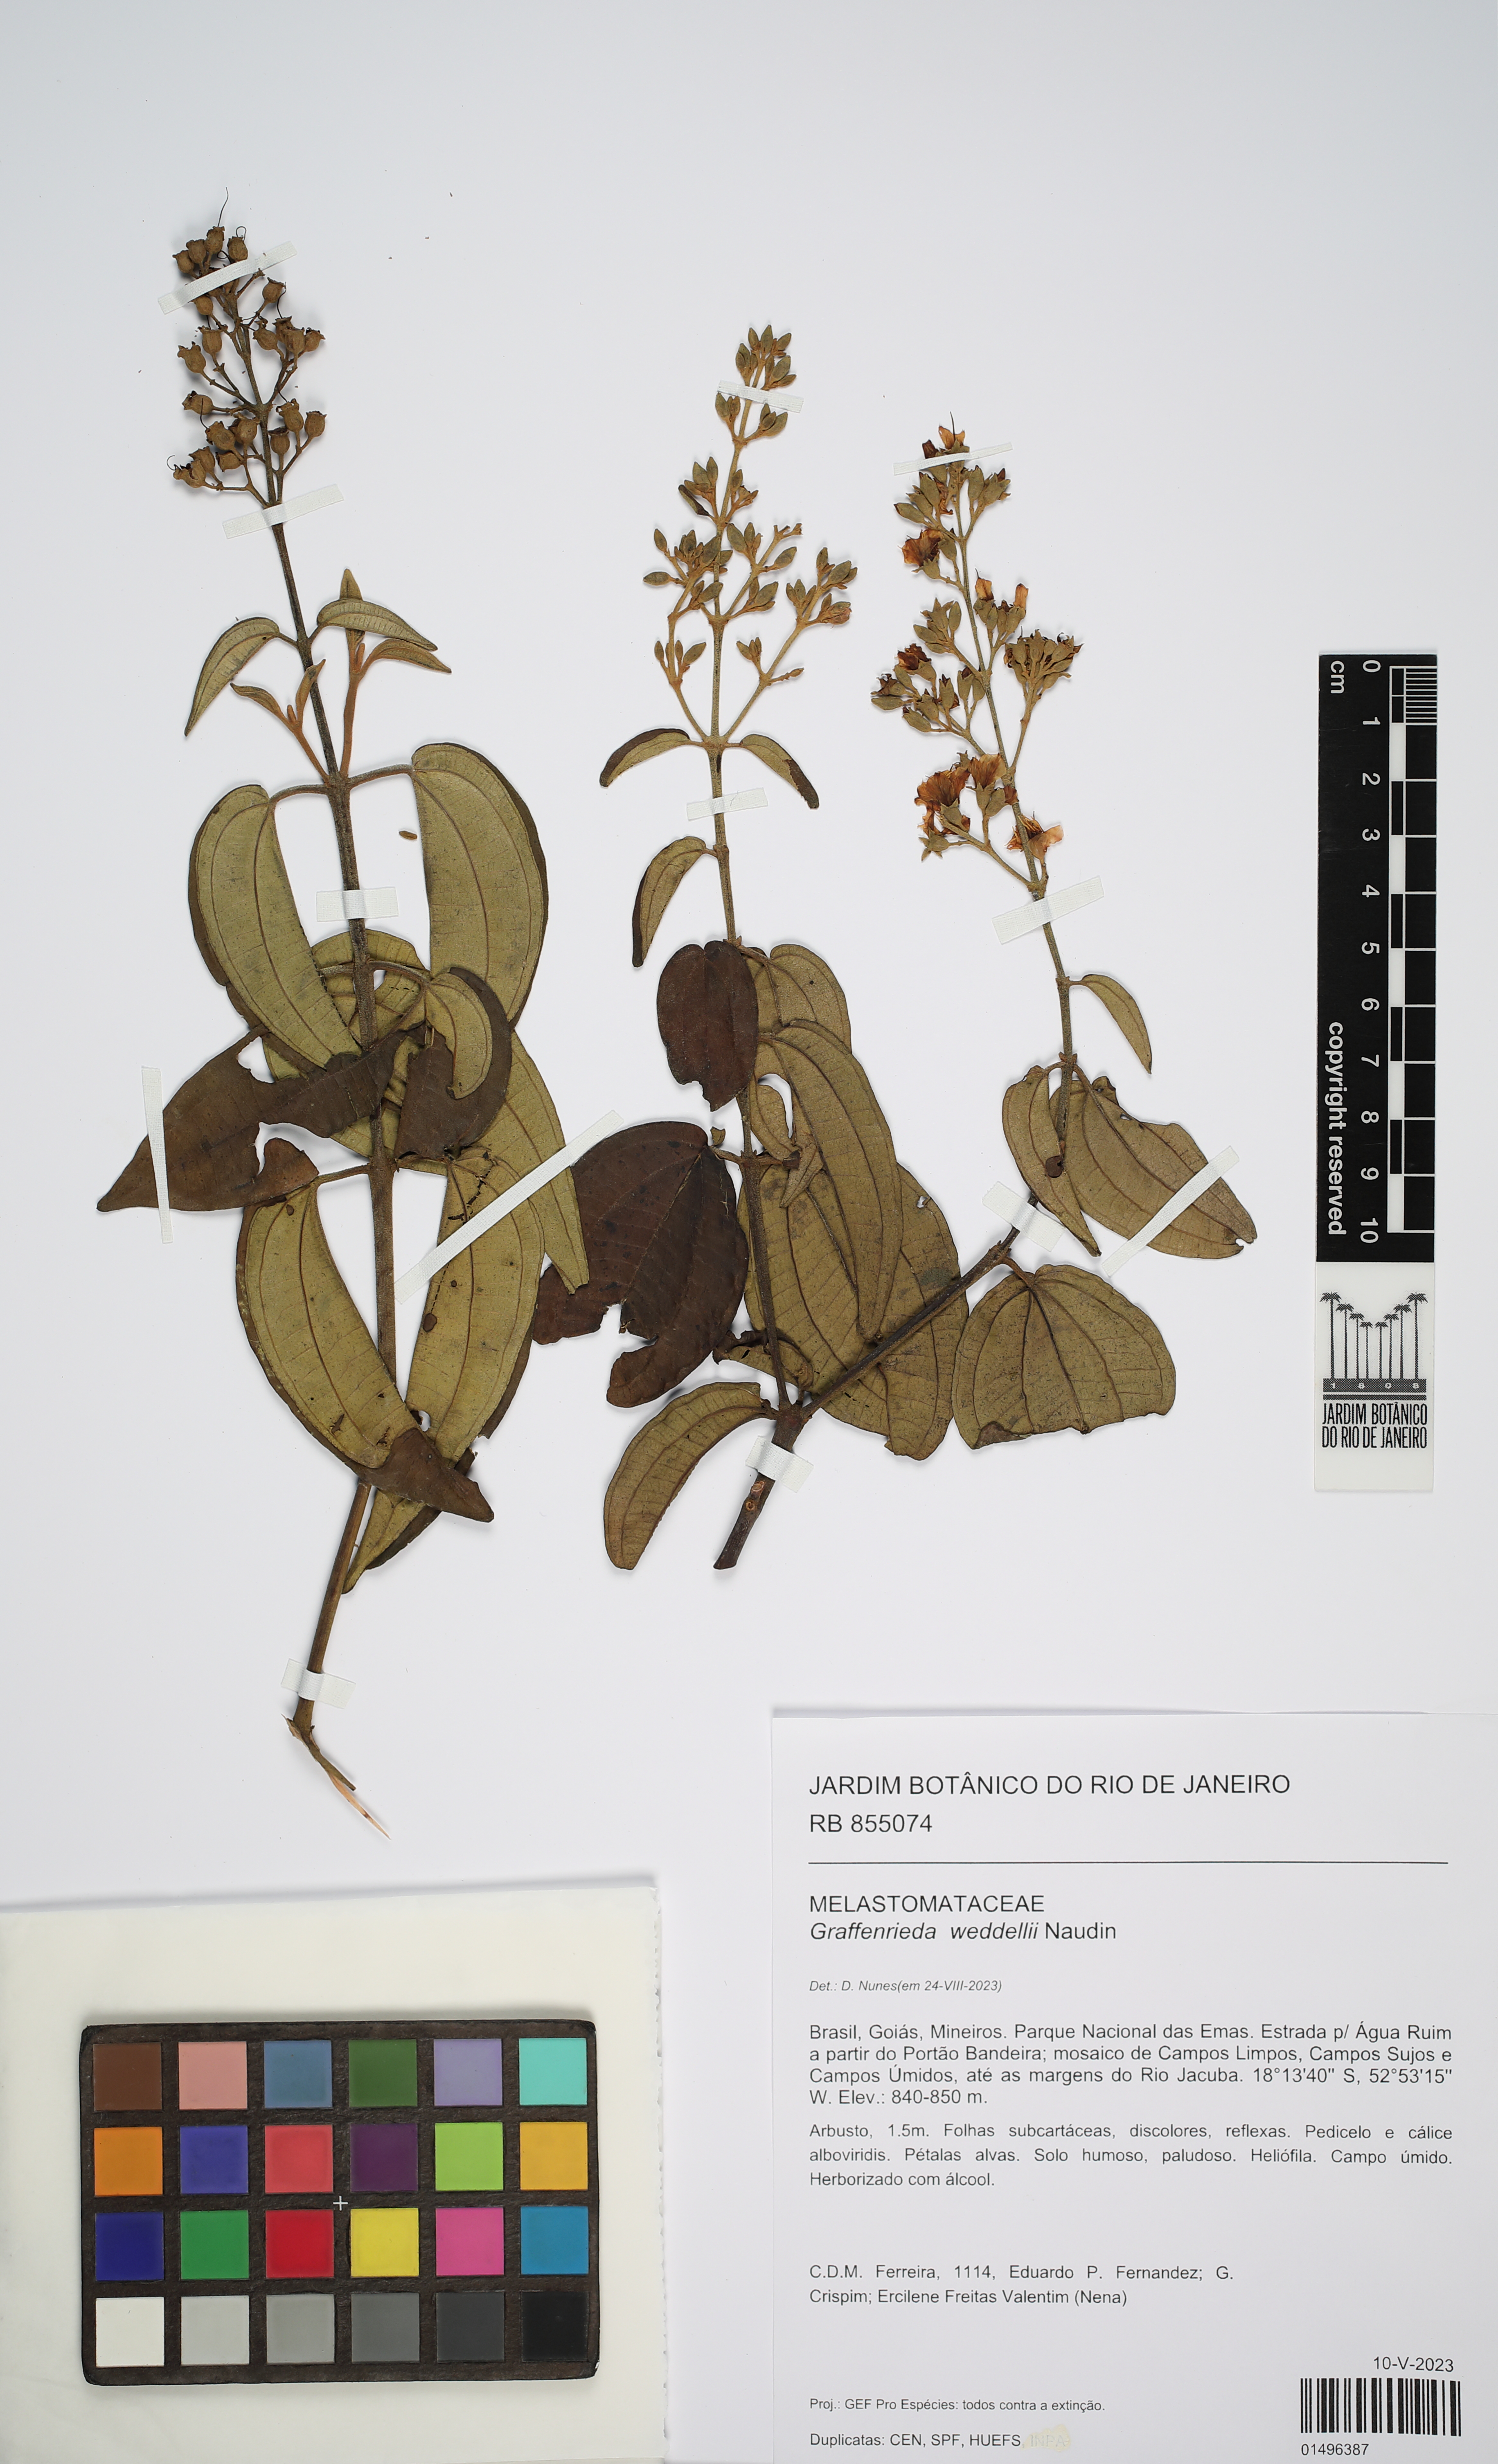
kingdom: Plantae
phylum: Tracheophyta
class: Magnoliopsida
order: Myrtales
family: Melastomataceae
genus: Graffenrieda
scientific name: Graffenrieda weddellii
